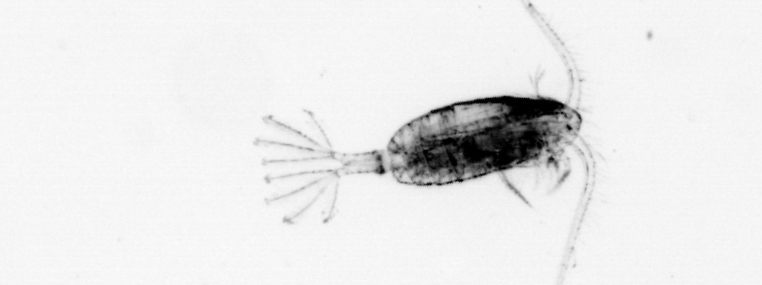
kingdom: Animalia
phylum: Arthropoda
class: Copepoda
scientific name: Copepoda
